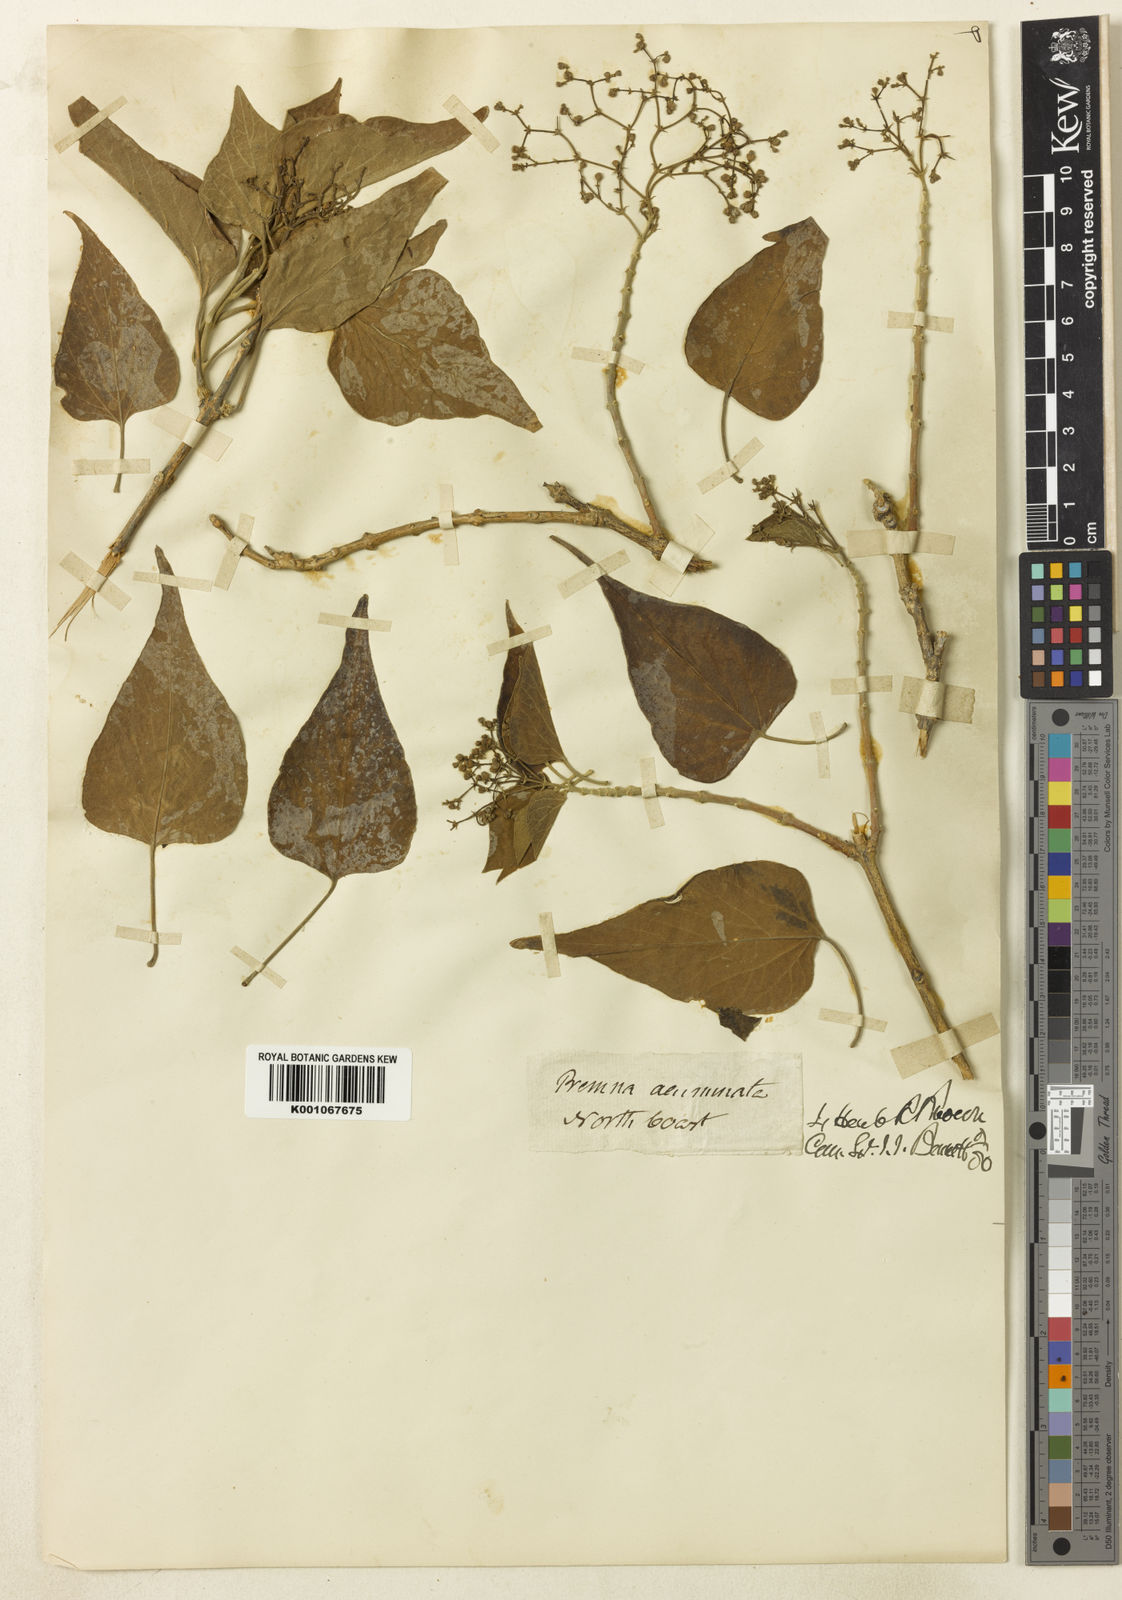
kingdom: Plantae
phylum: Tracheophyta
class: Magnoliopsida
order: Lamiales
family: Lamiaceae
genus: Premna
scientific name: Premna acuminata
